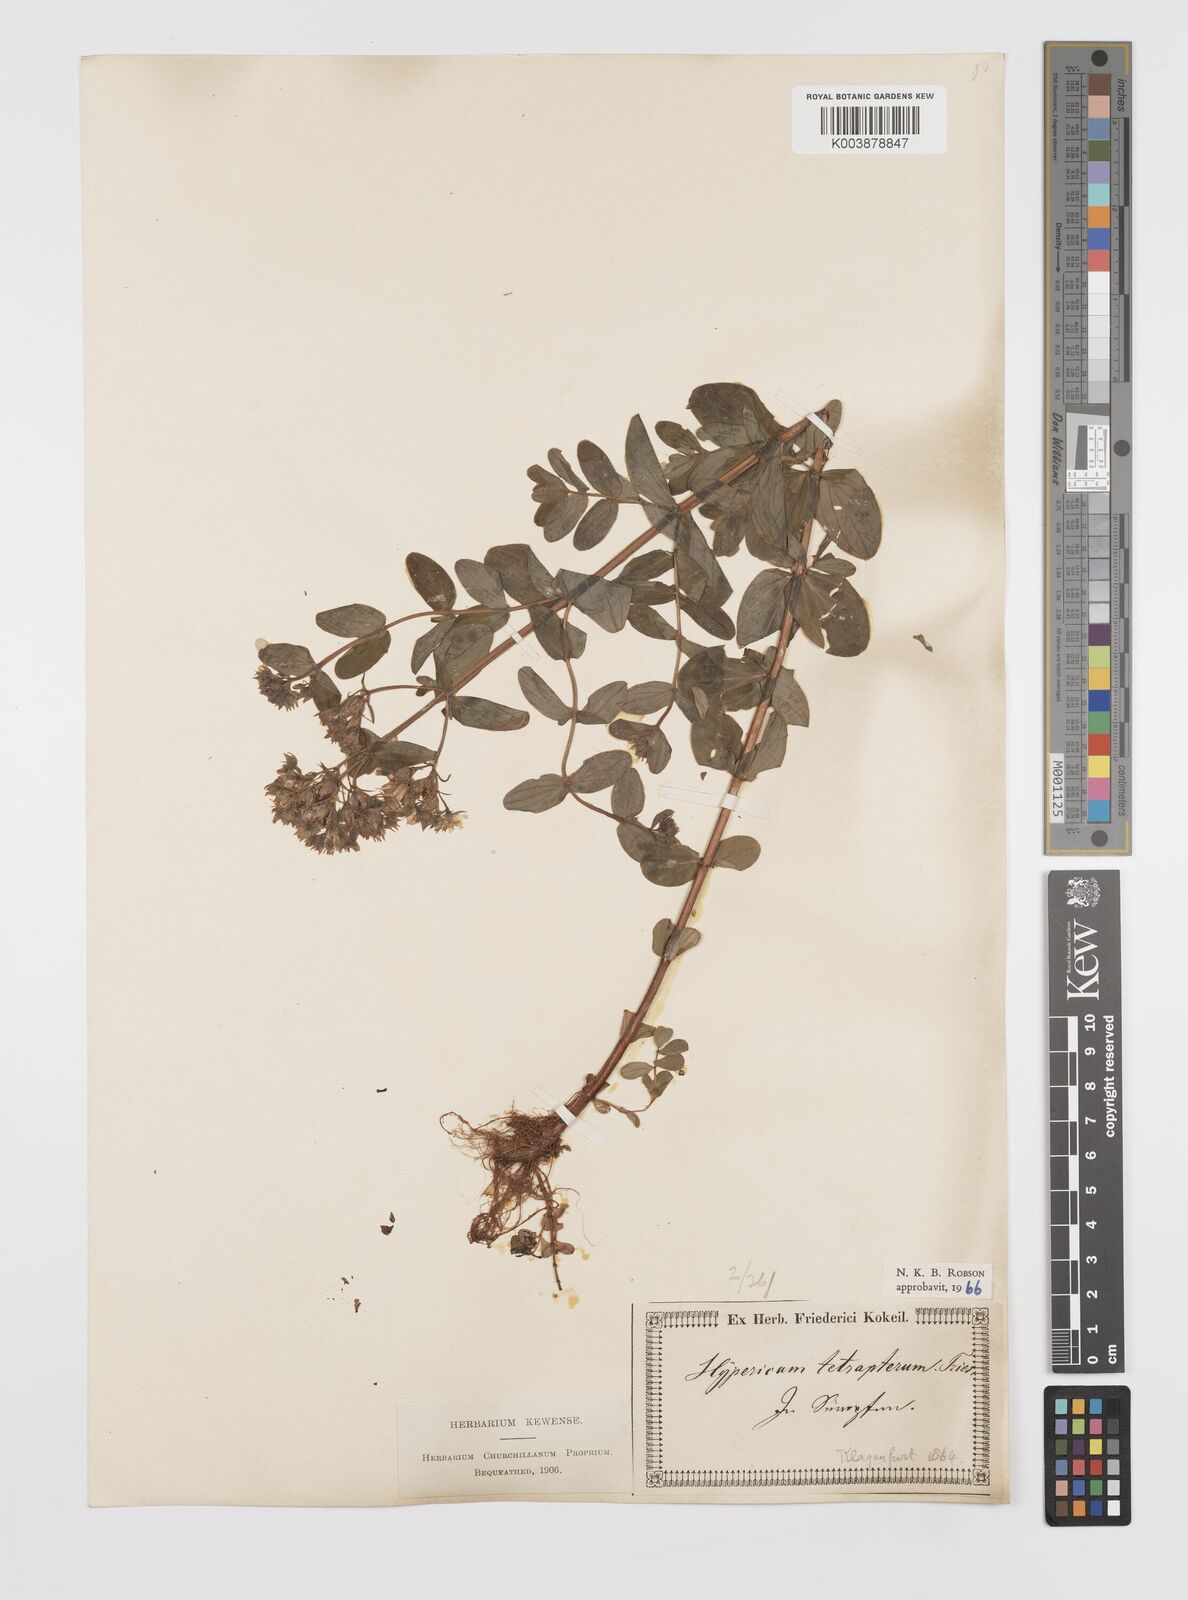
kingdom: Plantae
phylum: Tracheophyta
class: Magnoliopsida
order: Malpighiales
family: Hypericaceae
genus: Hypericum
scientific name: Hypericum tetrapterum
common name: Square-stalked st. john's-wort
